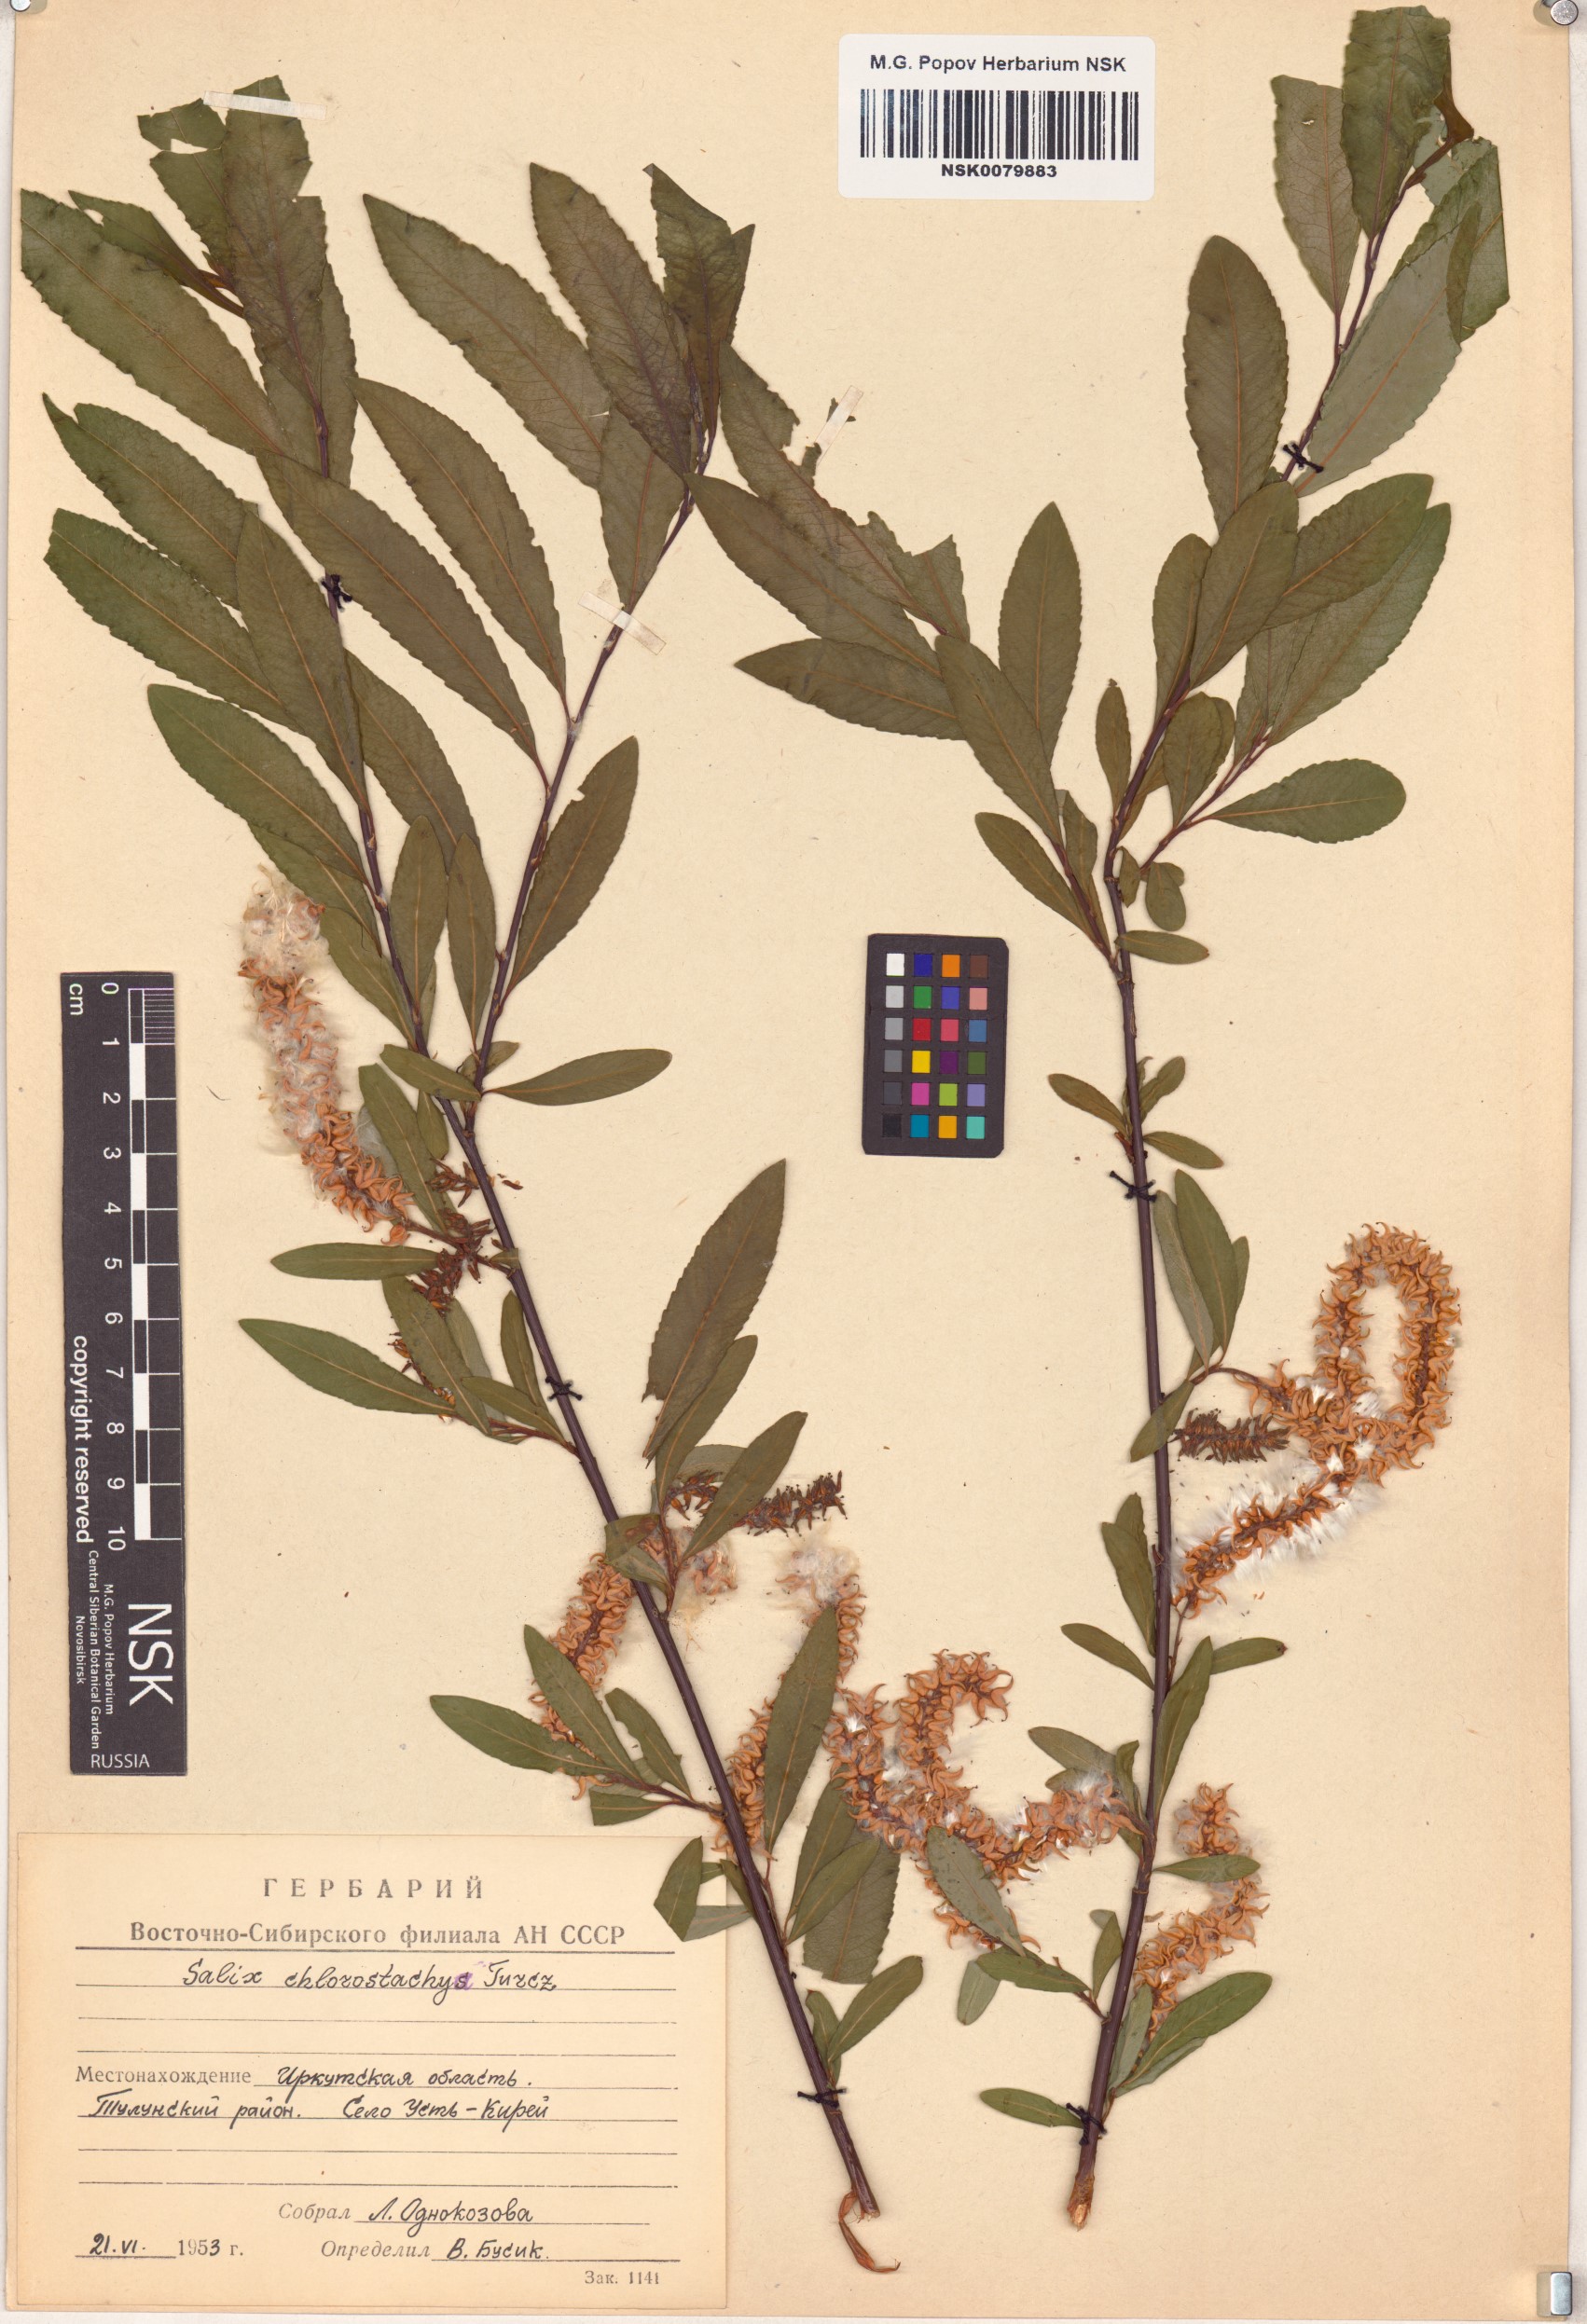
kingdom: Plantae
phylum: Tracheophyta
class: Magnoliopsida
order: Malpighiales
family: Salicaceae
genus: Salix
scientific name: Salix rhamnifolia
